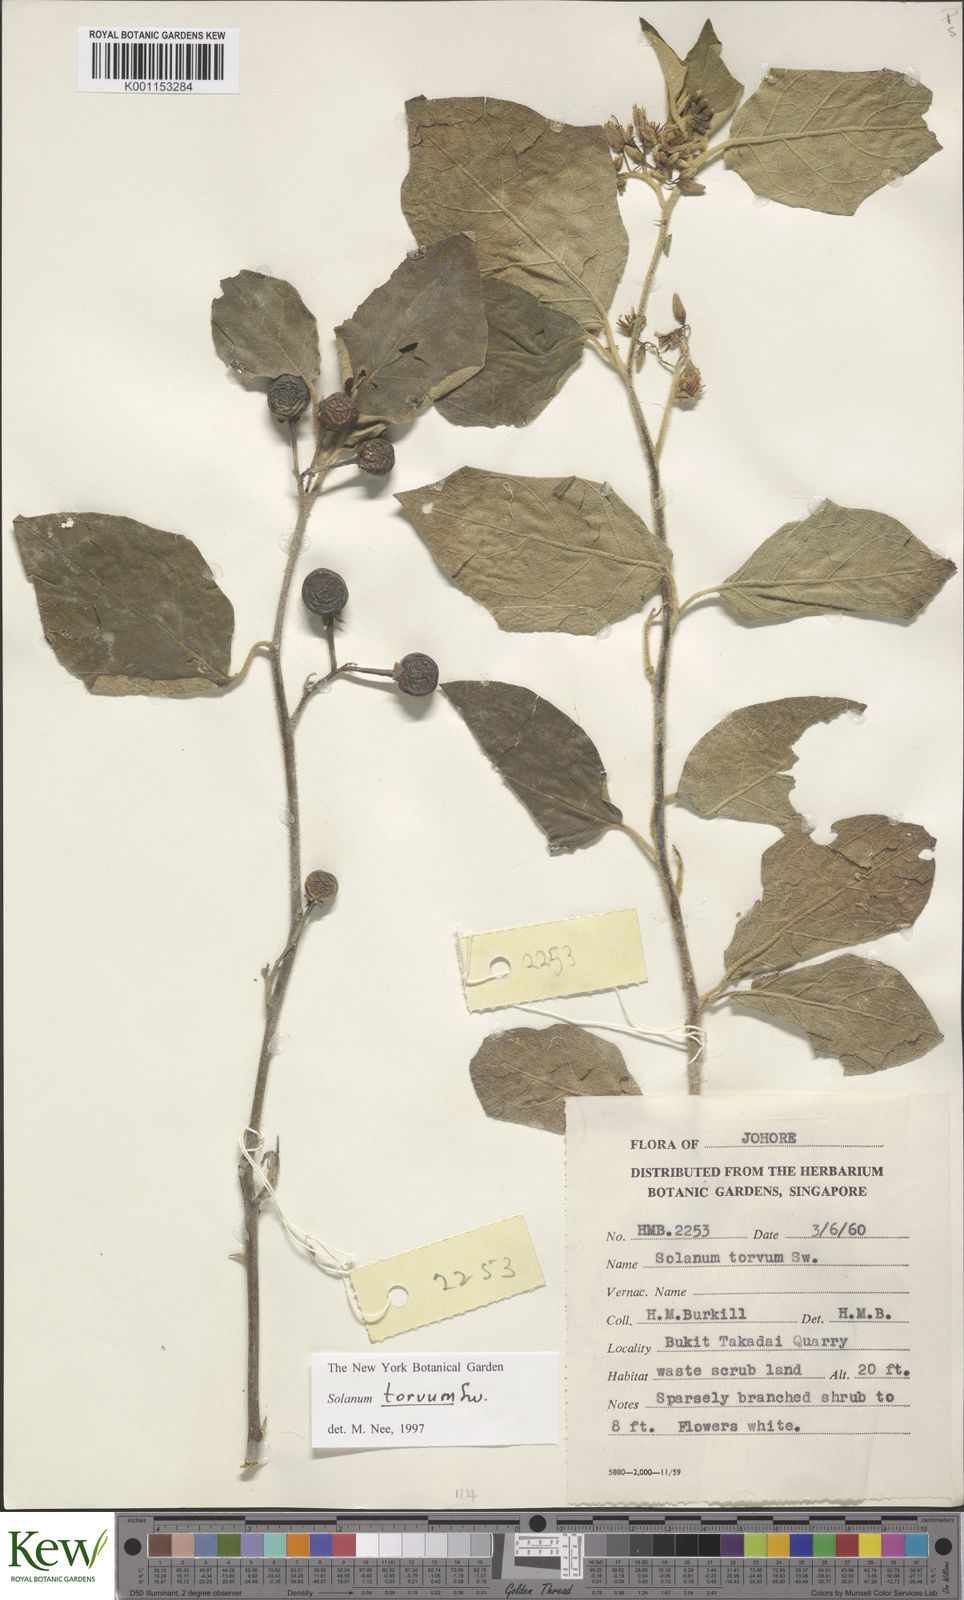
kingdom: Plantae
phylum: Tracheophyta
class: Magnoliopsida
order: Solanales
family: Solanaceae
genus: Solanum
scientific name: Solanum torvum
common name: Turkey berry
